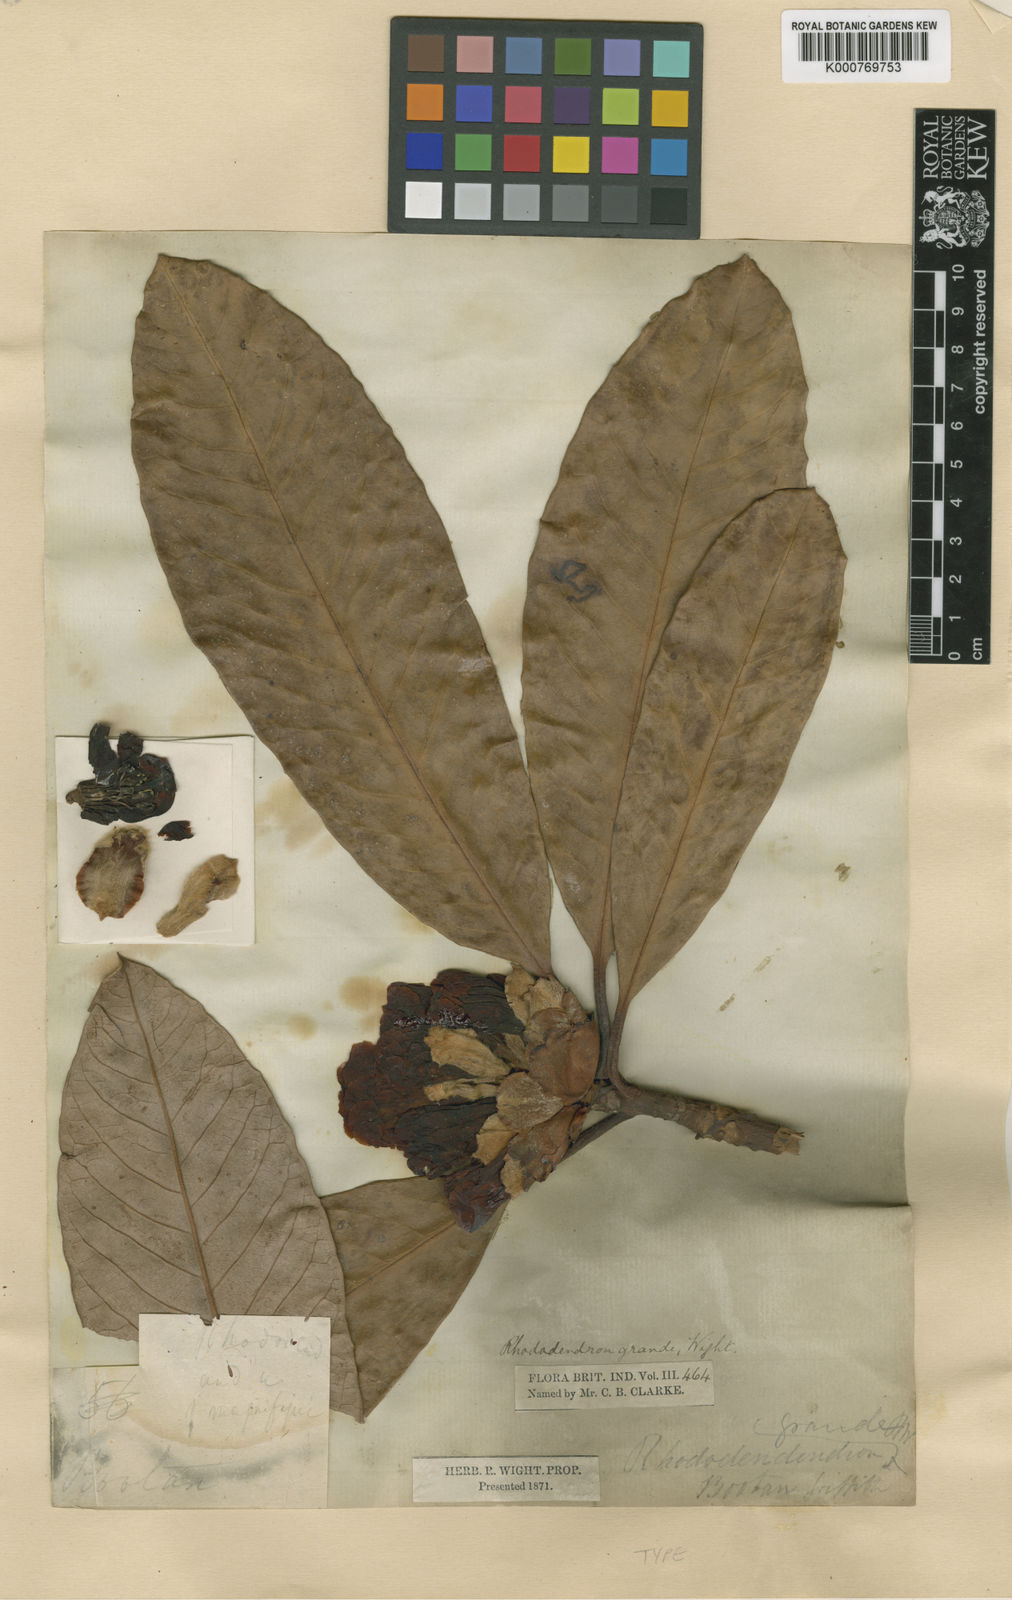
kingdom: Plantae
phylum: Tracheophyta
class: Magnoliopsida
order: Ericales
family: Ericaceae
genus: Rhododendron
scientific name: Rhododendron grande
